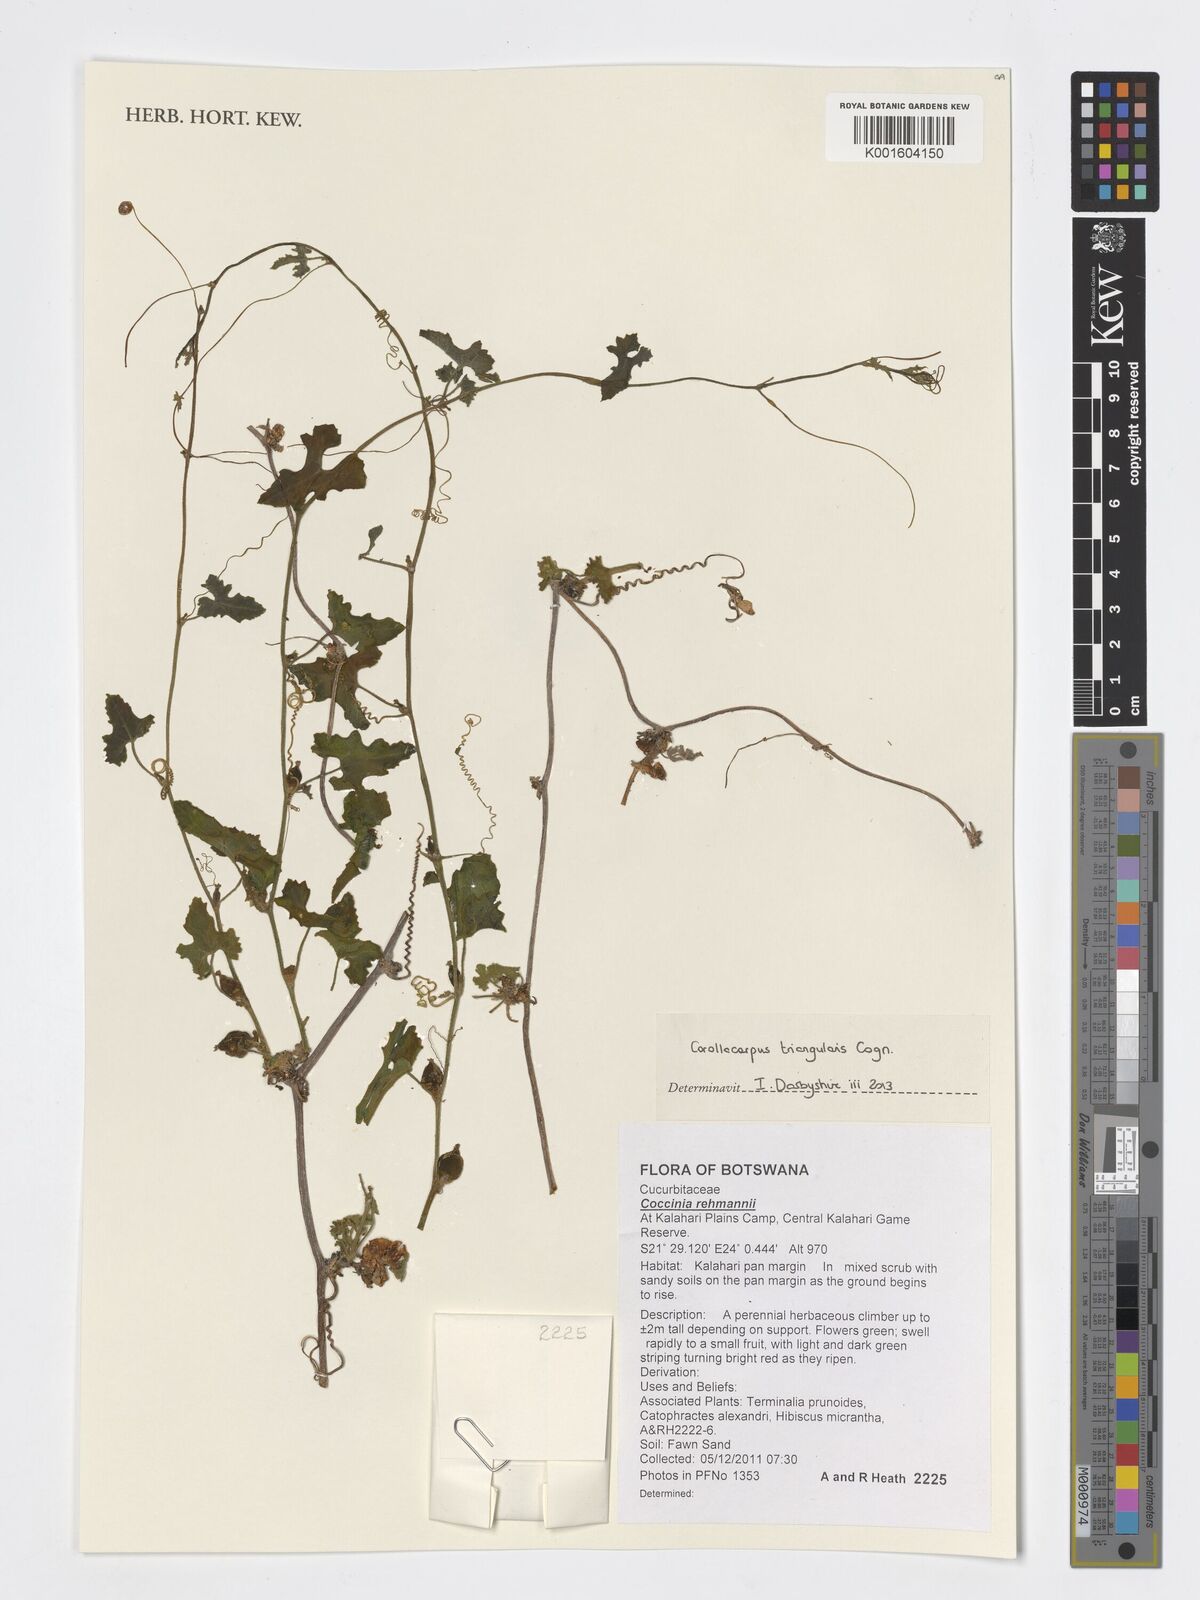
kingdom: Plantae
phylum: Tracheophyta
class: Magnoliopsida
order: Cucurbitales
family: Cucurbitaceae
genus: Corallocarpus
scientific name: Corallocarpus triangularis
